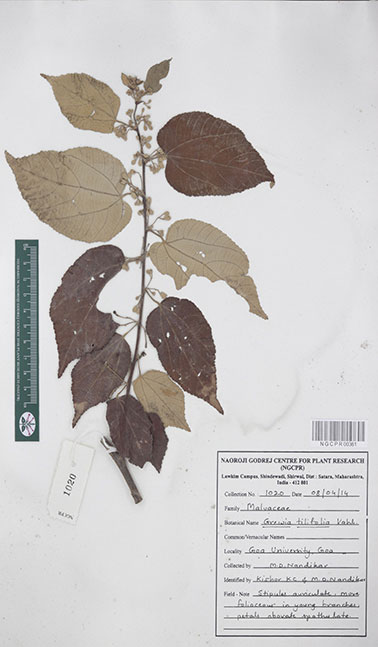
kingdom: Plantae
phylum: Tracheophyta
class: Magnoliopsida
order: Malvales
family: Malvaceae
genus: Grewia
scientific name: Grewia tiliifolia
